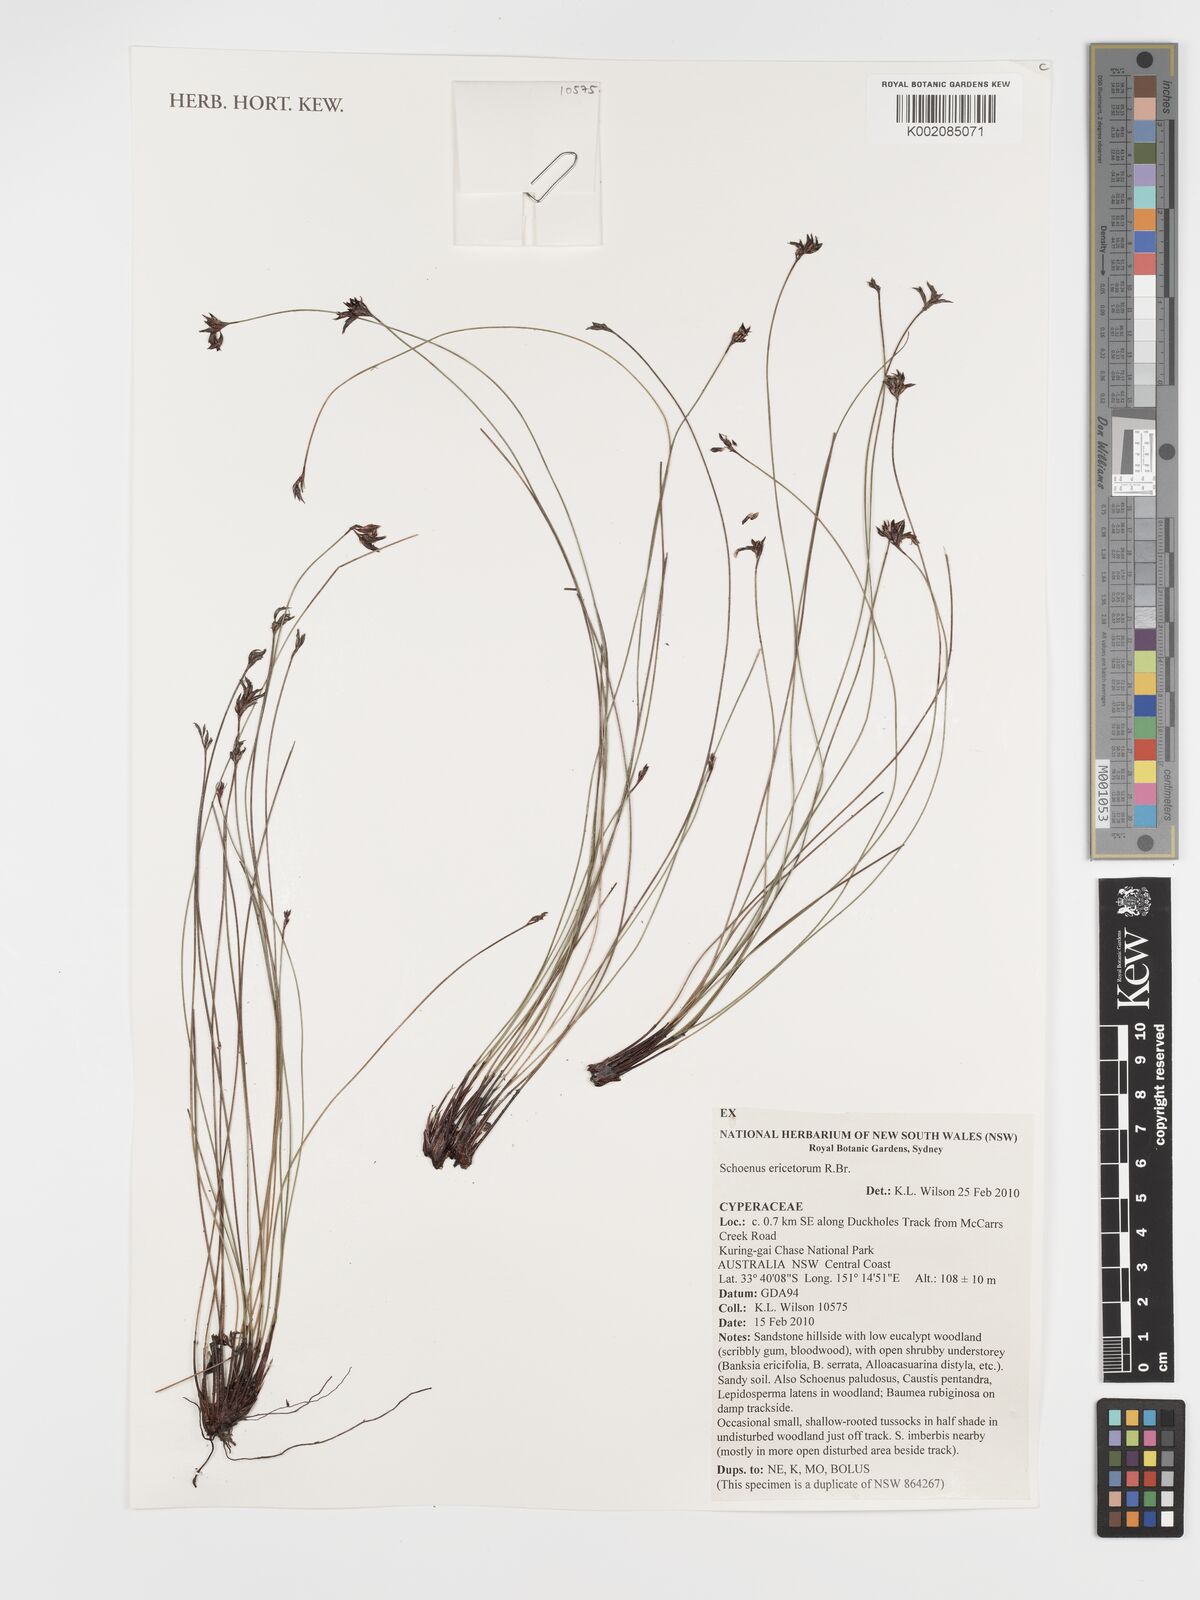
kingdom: Plantae
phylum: Tracheophyta
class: Liliopsida
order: Poales
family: Cyperaceae
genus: Schoenus
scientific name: Schoenus ericetorum
